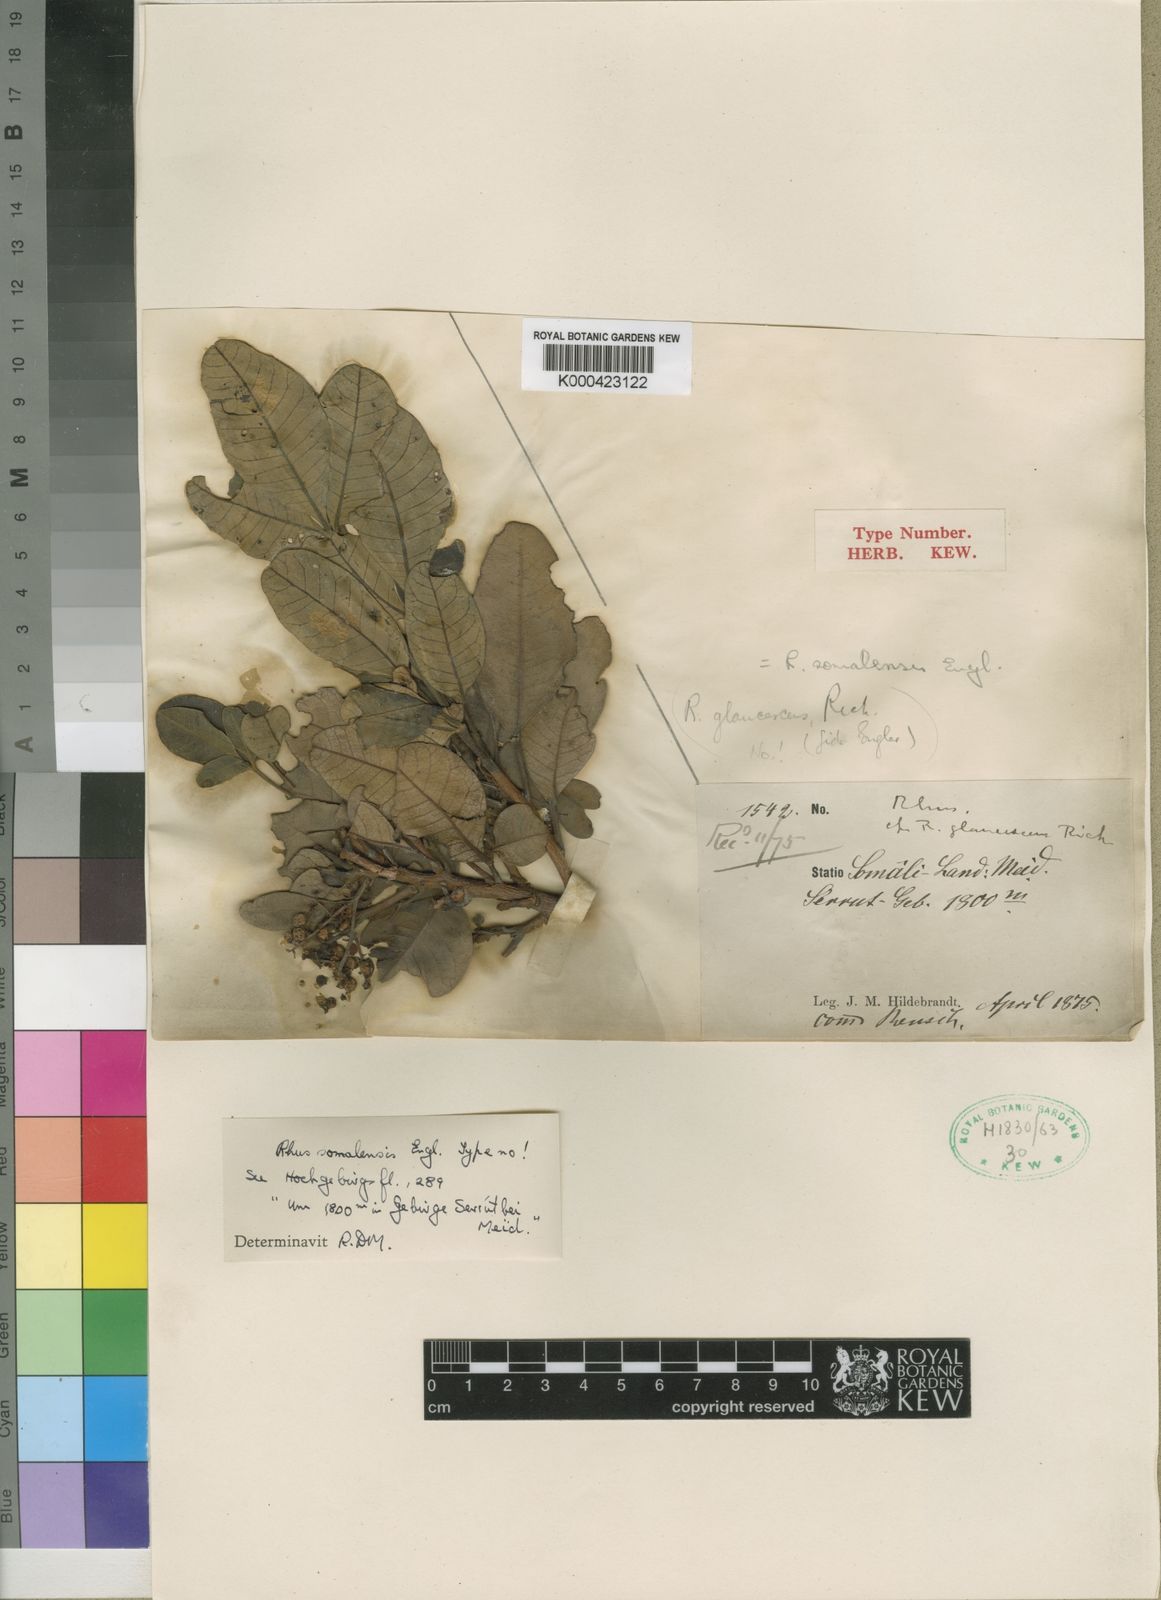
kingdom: Plantae
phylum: Tracheophyta
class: Magnoliopsida
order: Sapindales
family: Anacardiaceae
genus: Searsia
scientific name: Searsia somalensis
